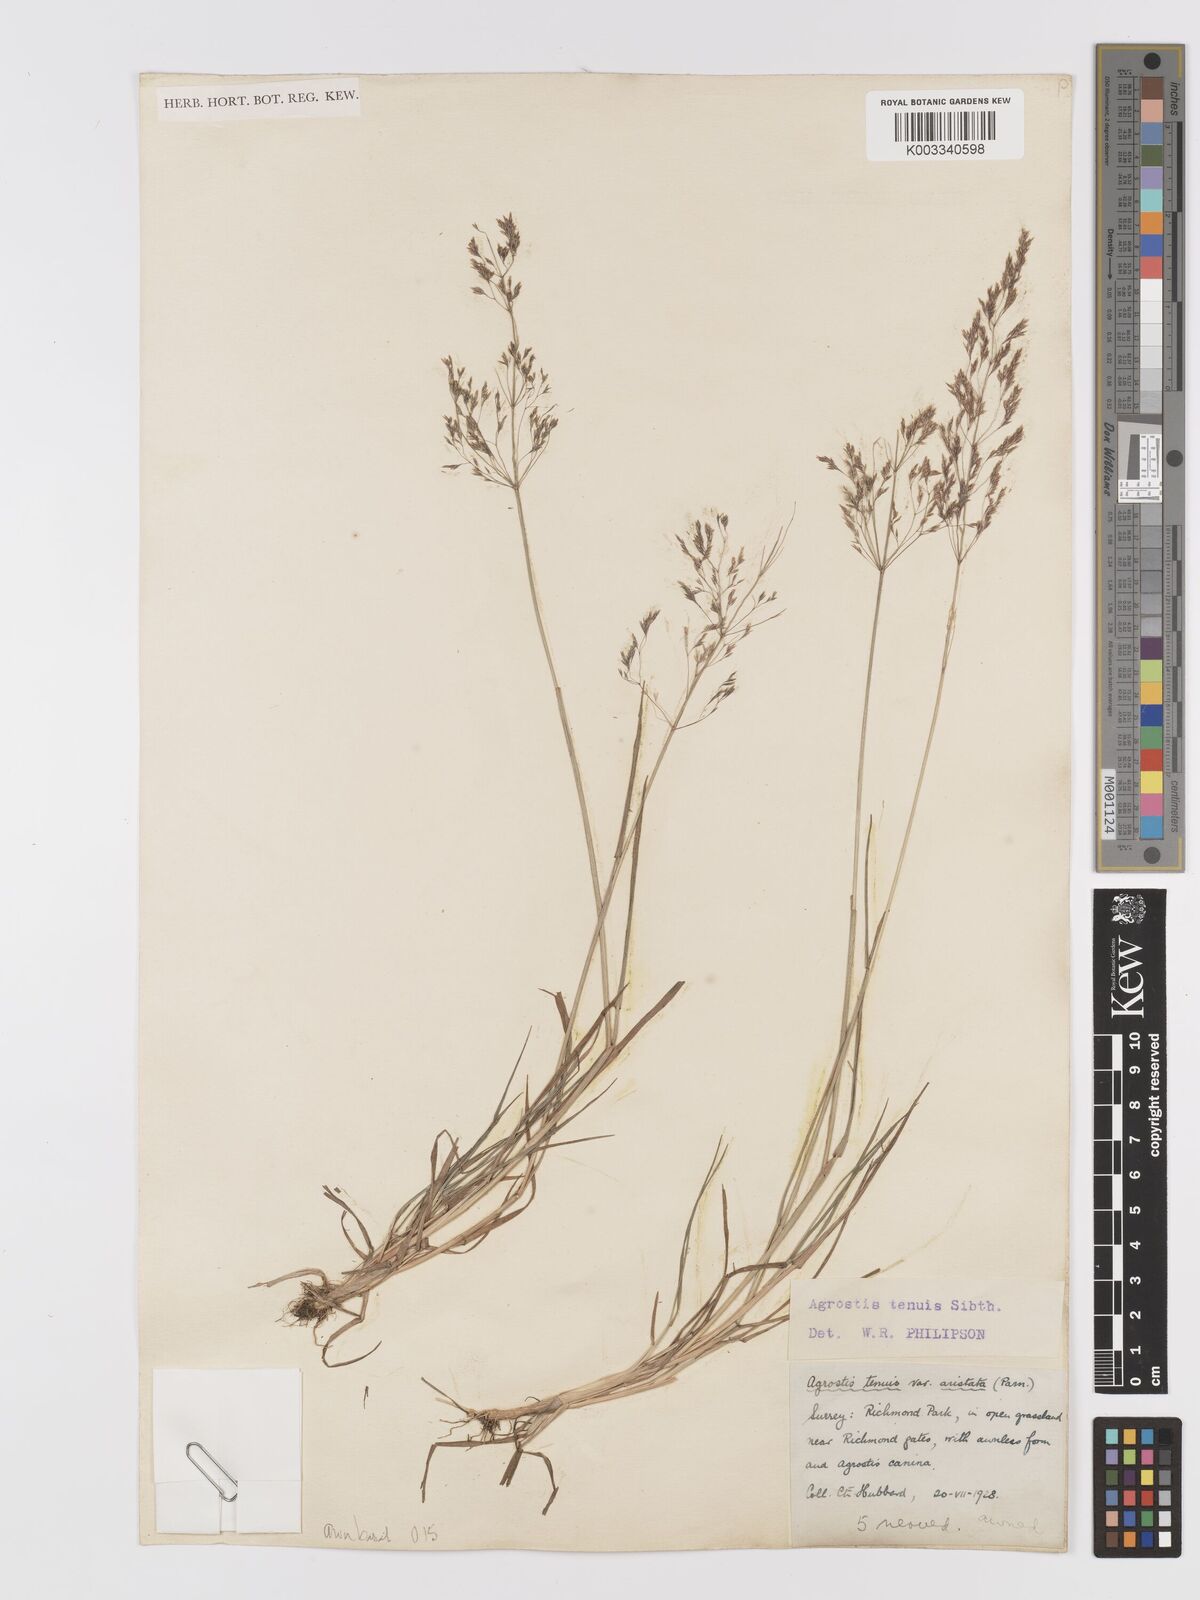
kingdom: Plantae
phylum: Tracheophyta
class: Liliopsida
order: Poales
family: Poaceae
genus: Agrostis
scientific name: Agrostis capillaris
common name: Colonial bentgrass
